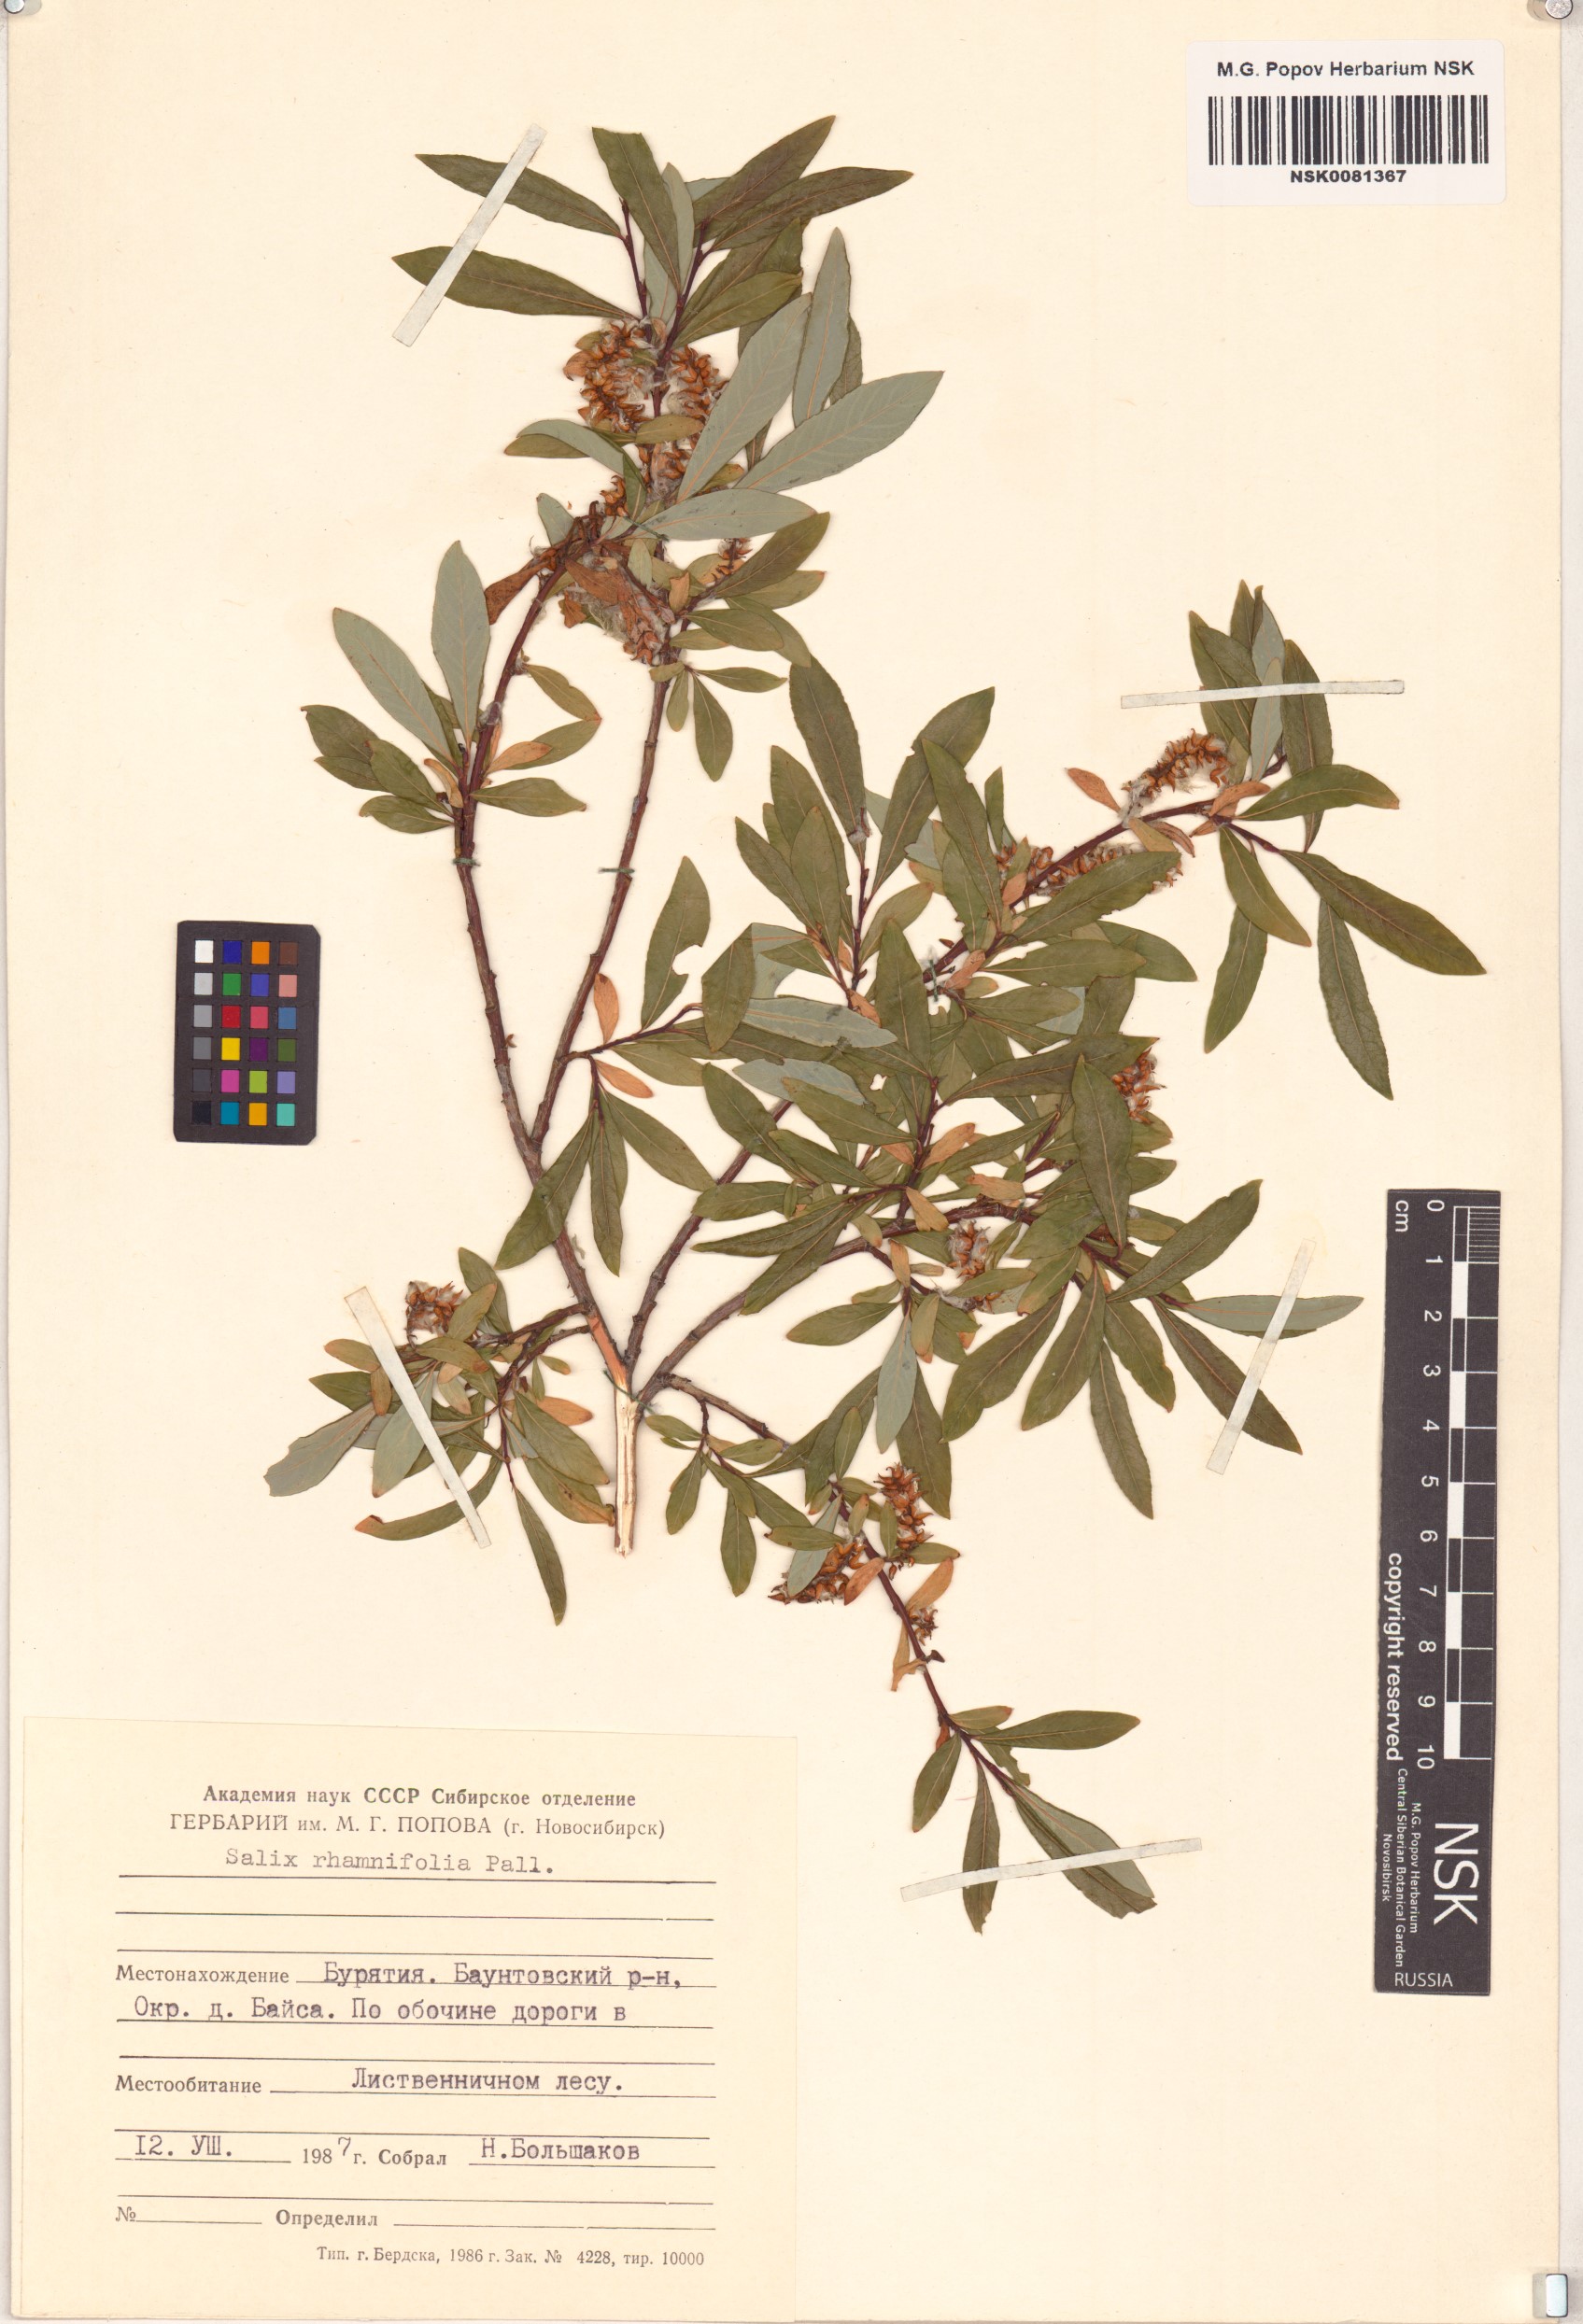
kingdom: Plantae
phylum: Tracheophyta
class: Magnoliopsida
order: Malpighiales
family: Salicaceae
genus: Salix
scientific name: Salix rhamnifolia
